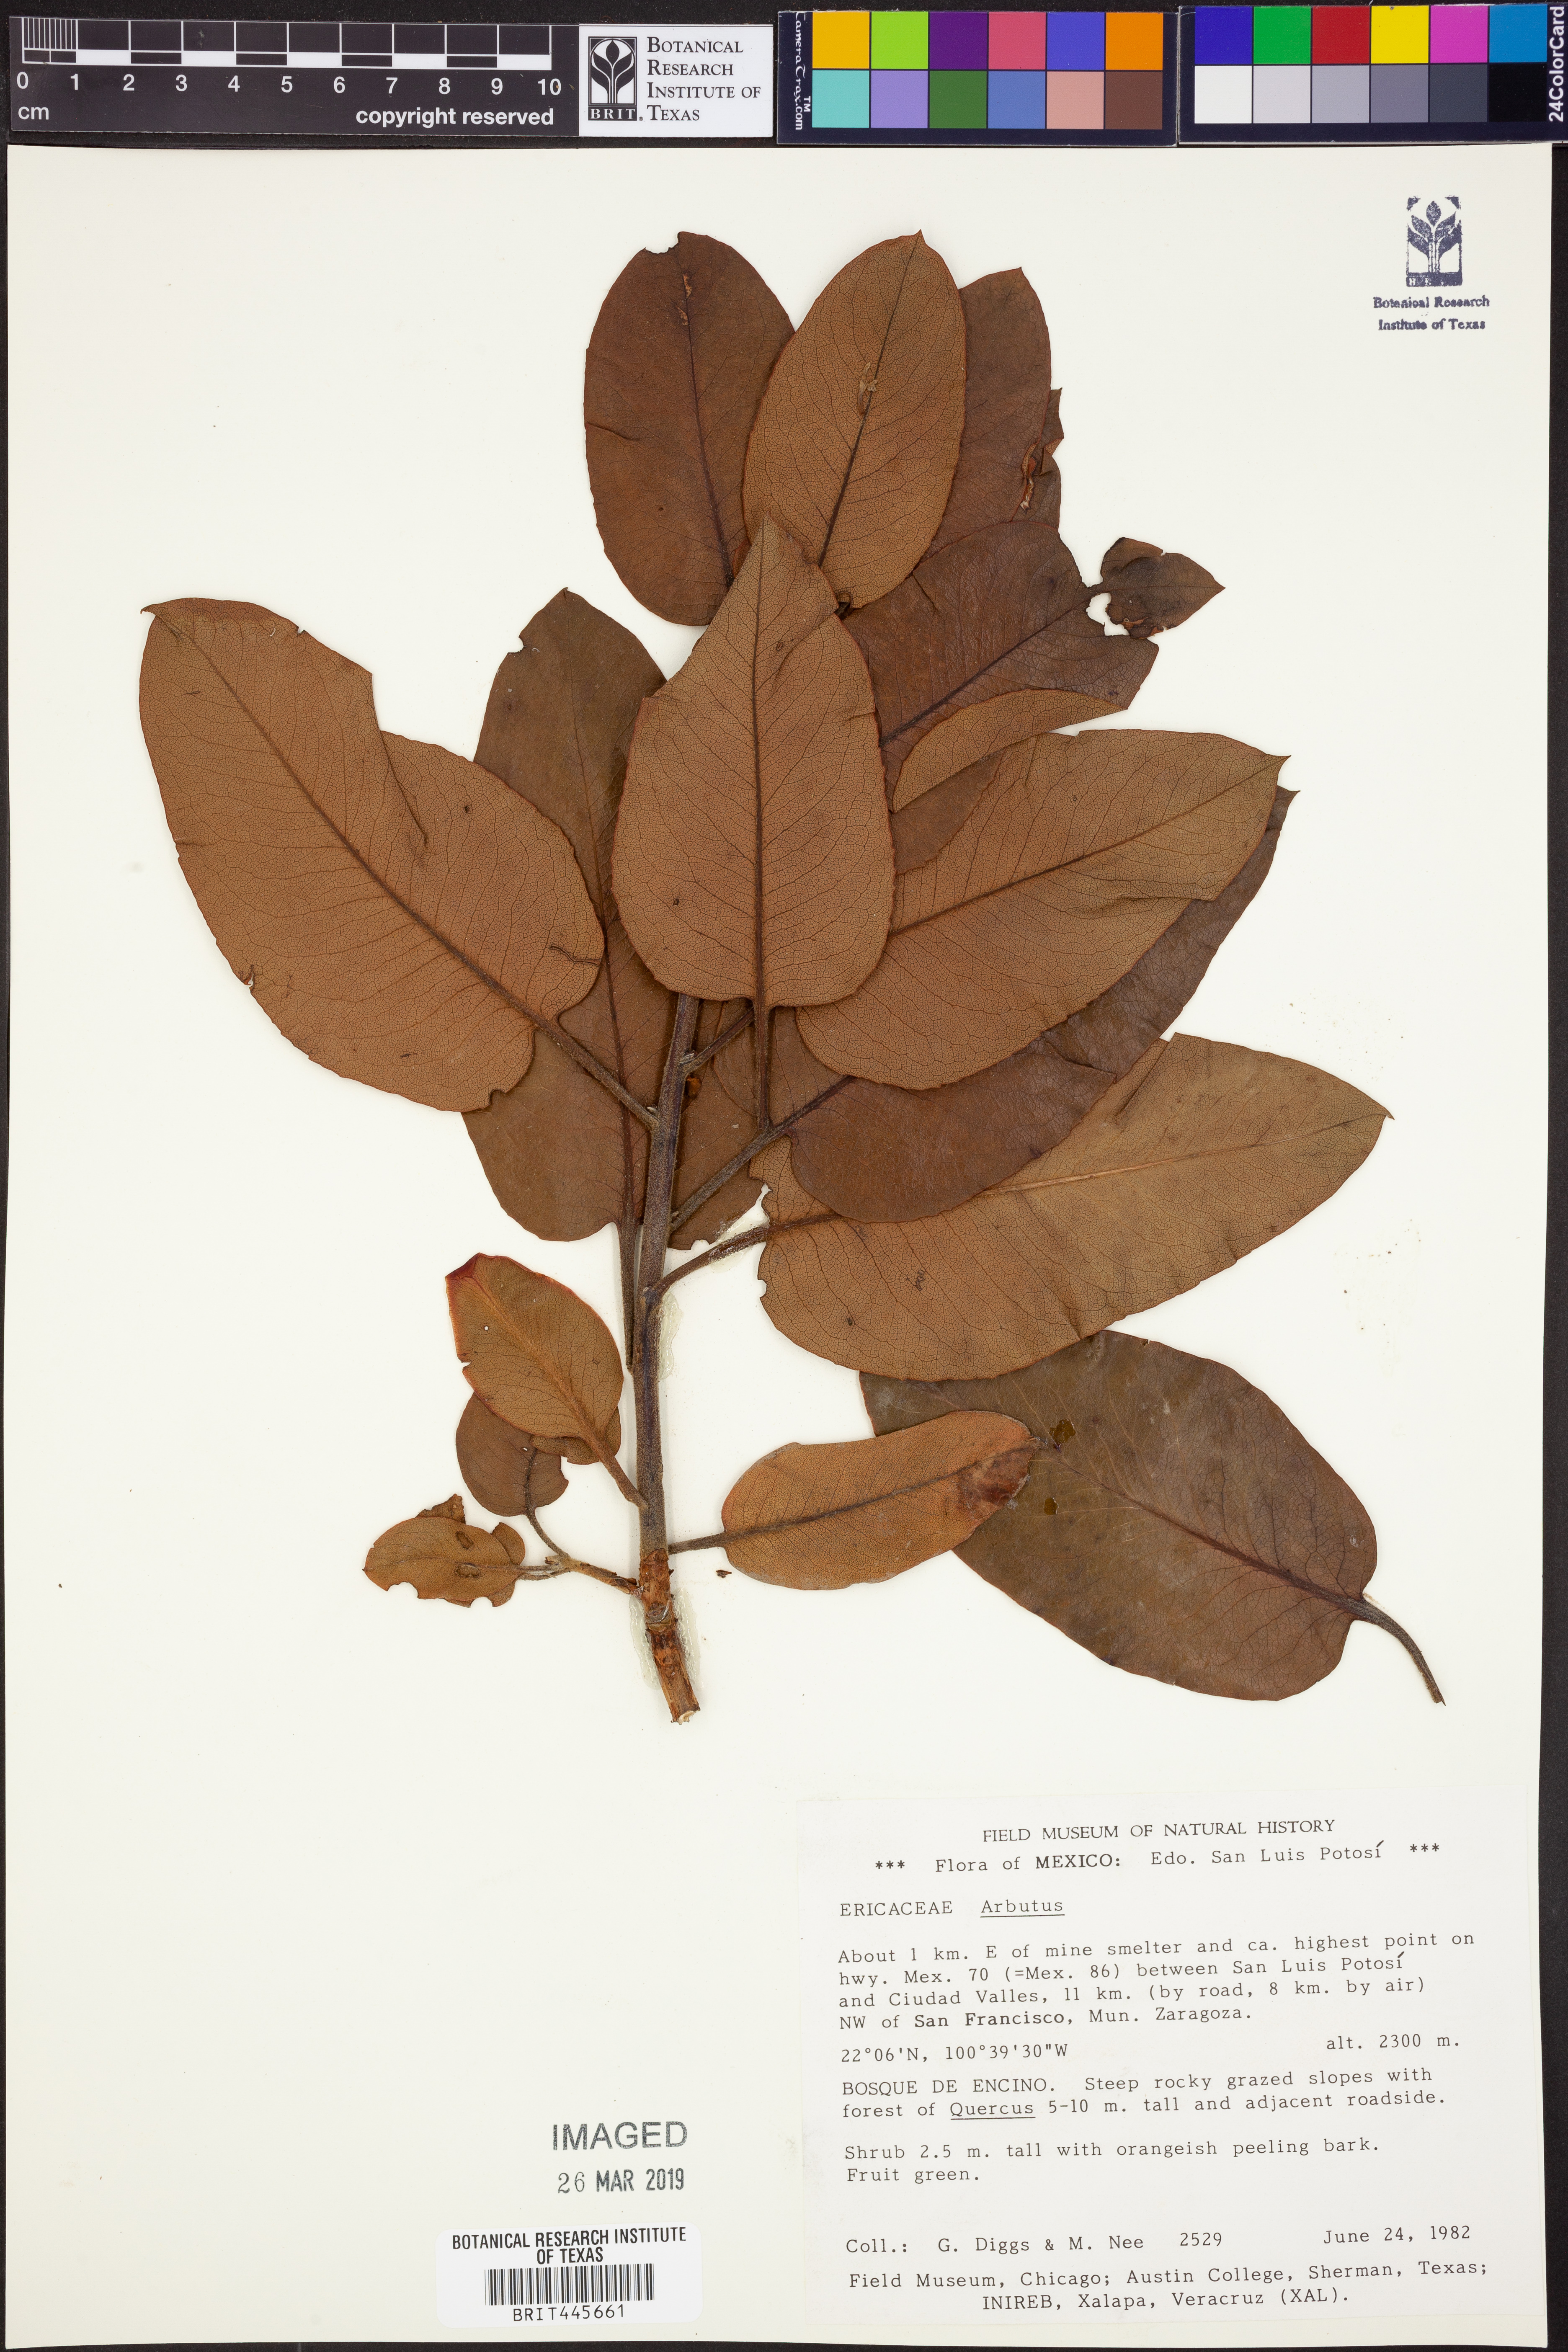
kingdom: Plantae
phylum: Tracheophyta
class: Magnoliopsida
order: Ericales
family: Ericaceae
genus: Arbutus
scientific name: Arbutus
